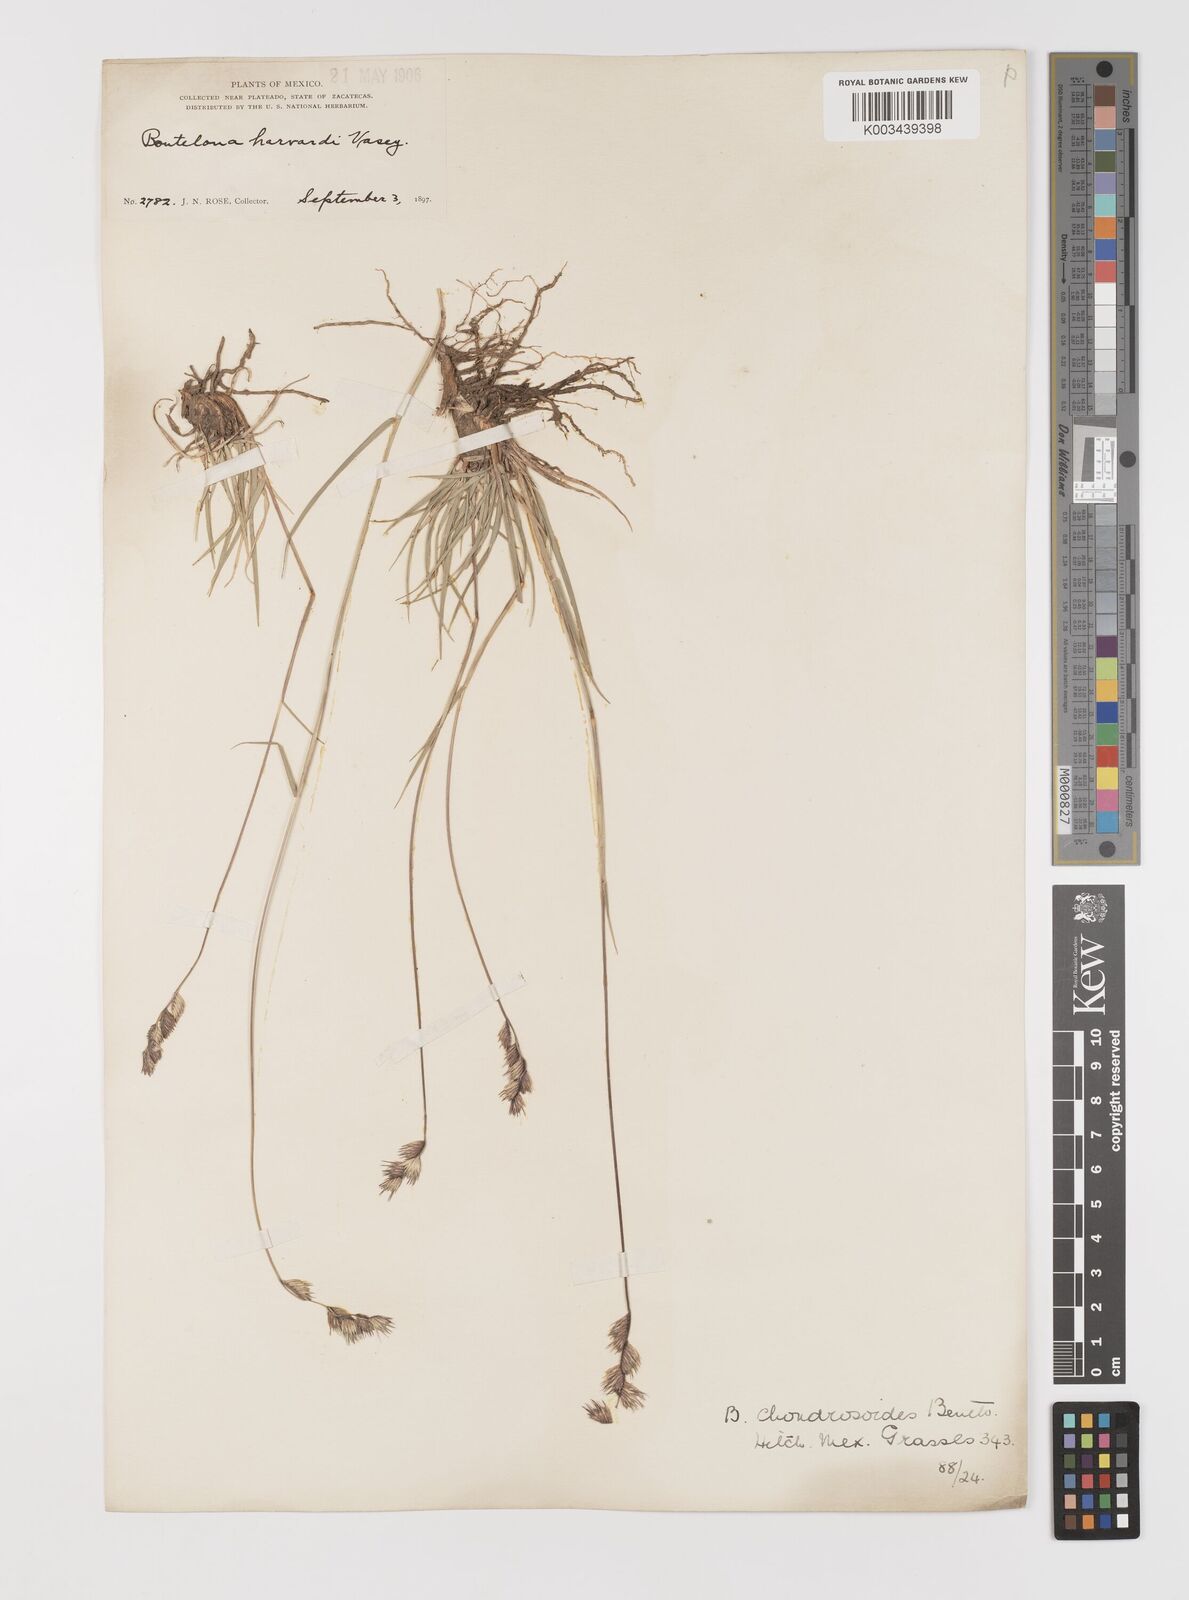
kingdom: Plantae
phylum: Tracheophyta
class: Liliopsida
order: Poales
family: Poaceae
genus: Bouteloua
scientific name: Bouteloua chondrosioides
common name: Sprucetop grama
